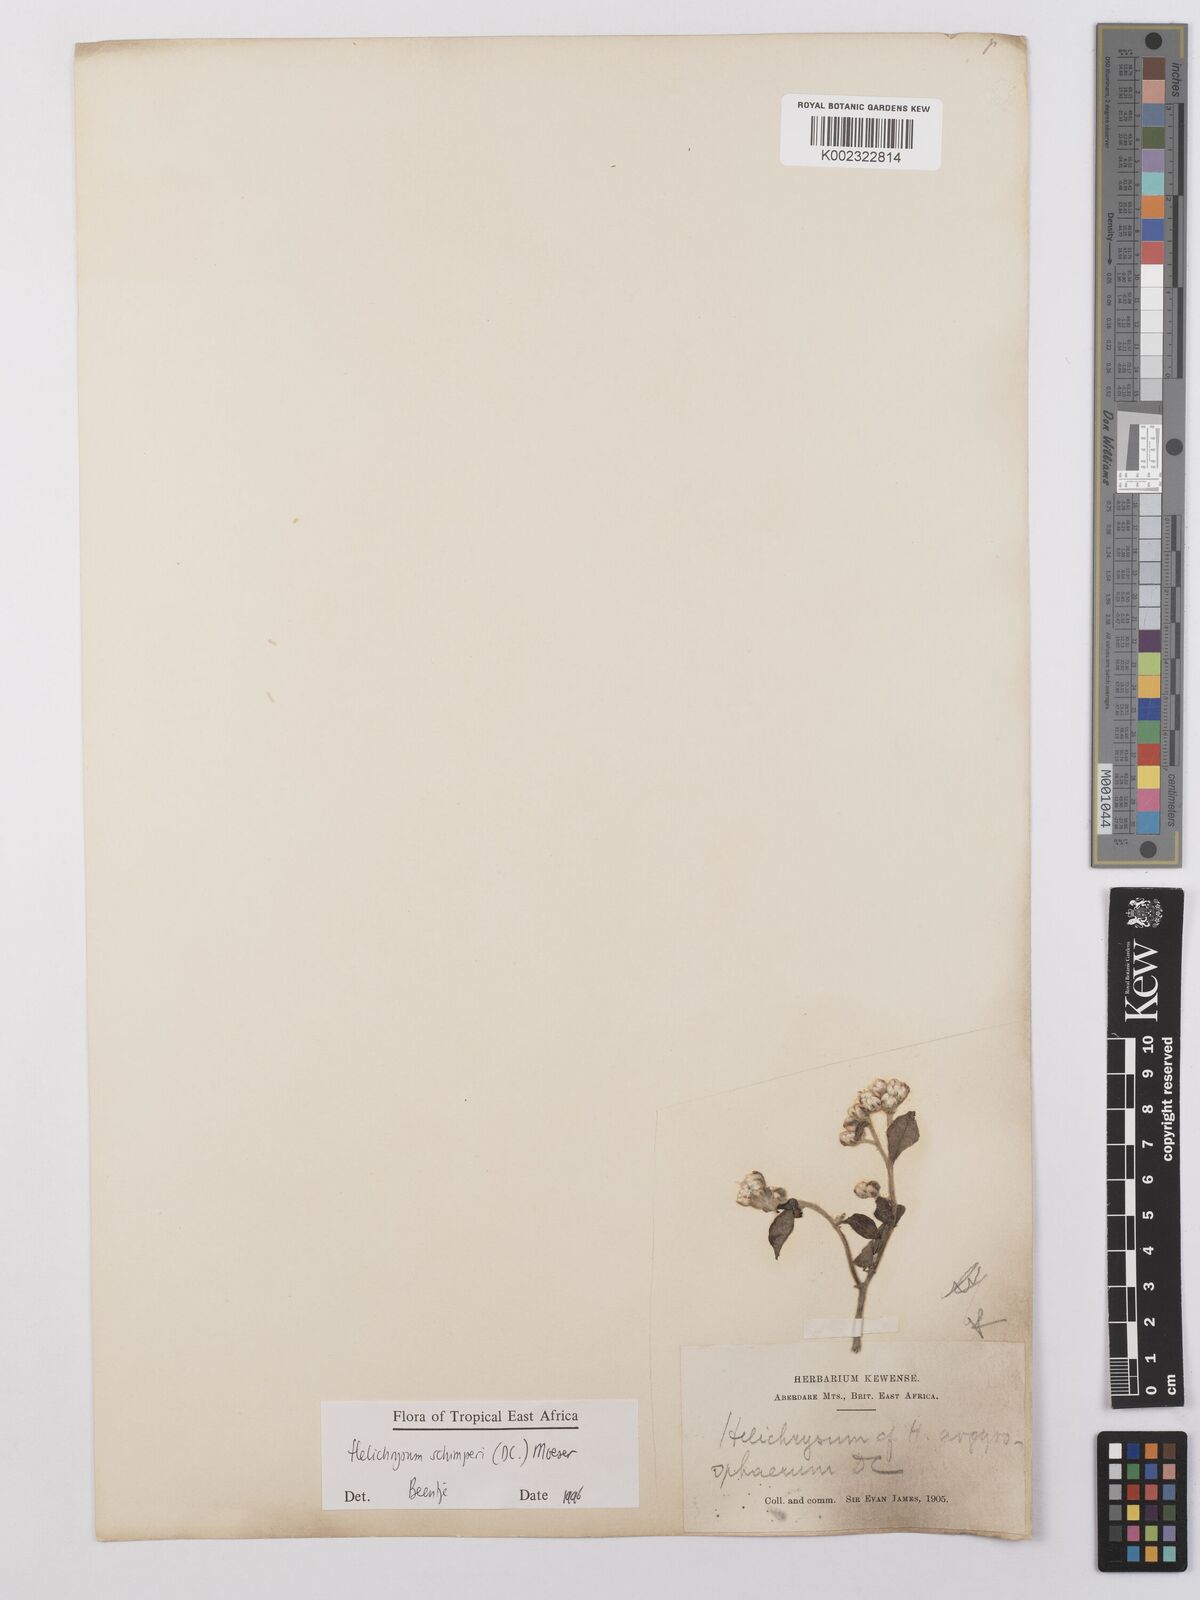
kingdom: Plantae
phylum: Tracheophyta
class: Magnoliopsida
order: Asterales
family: Asteraceae
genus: Helichrysum
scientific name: Helichrysum schimperi
